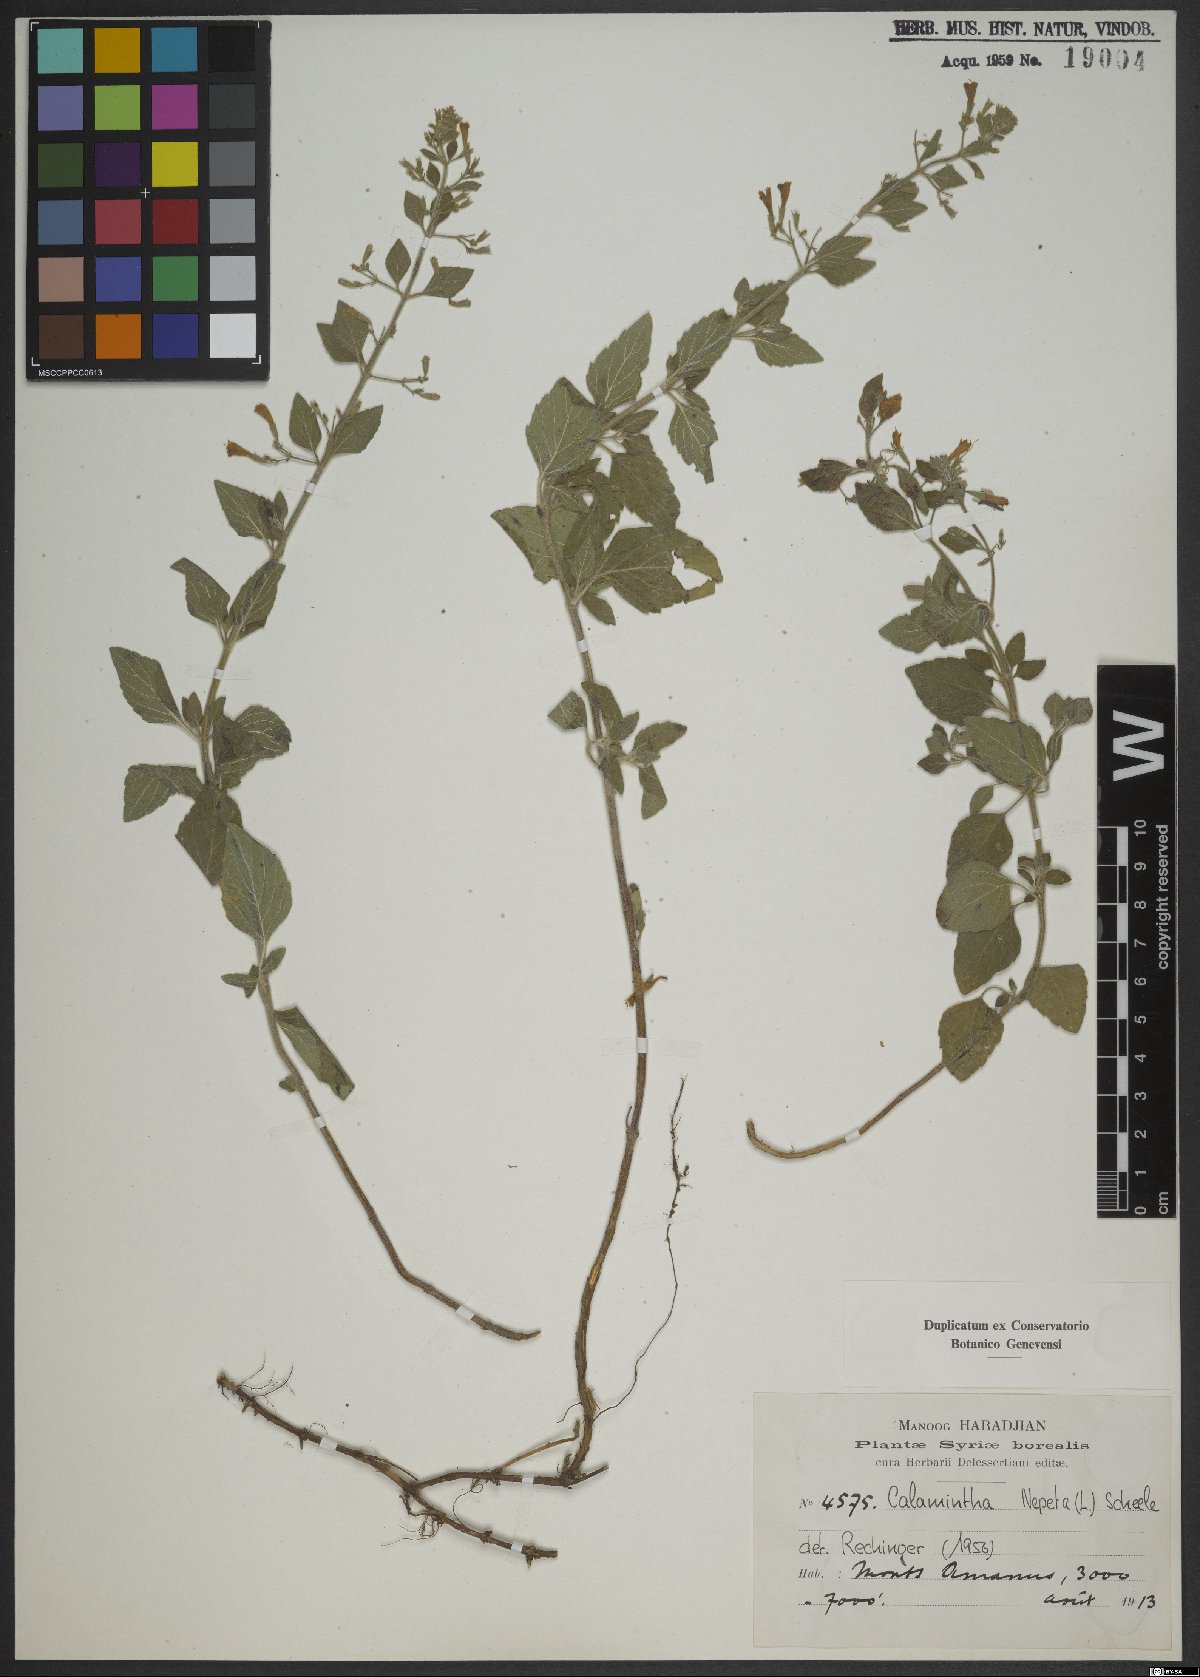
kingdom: Plantae
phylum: Tracheophyta
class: Magnoliopsida
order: Lamiales
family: Lamiaceae
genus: Clinopodium
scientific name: Clinopodium nepeta
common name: Lesser calamint
